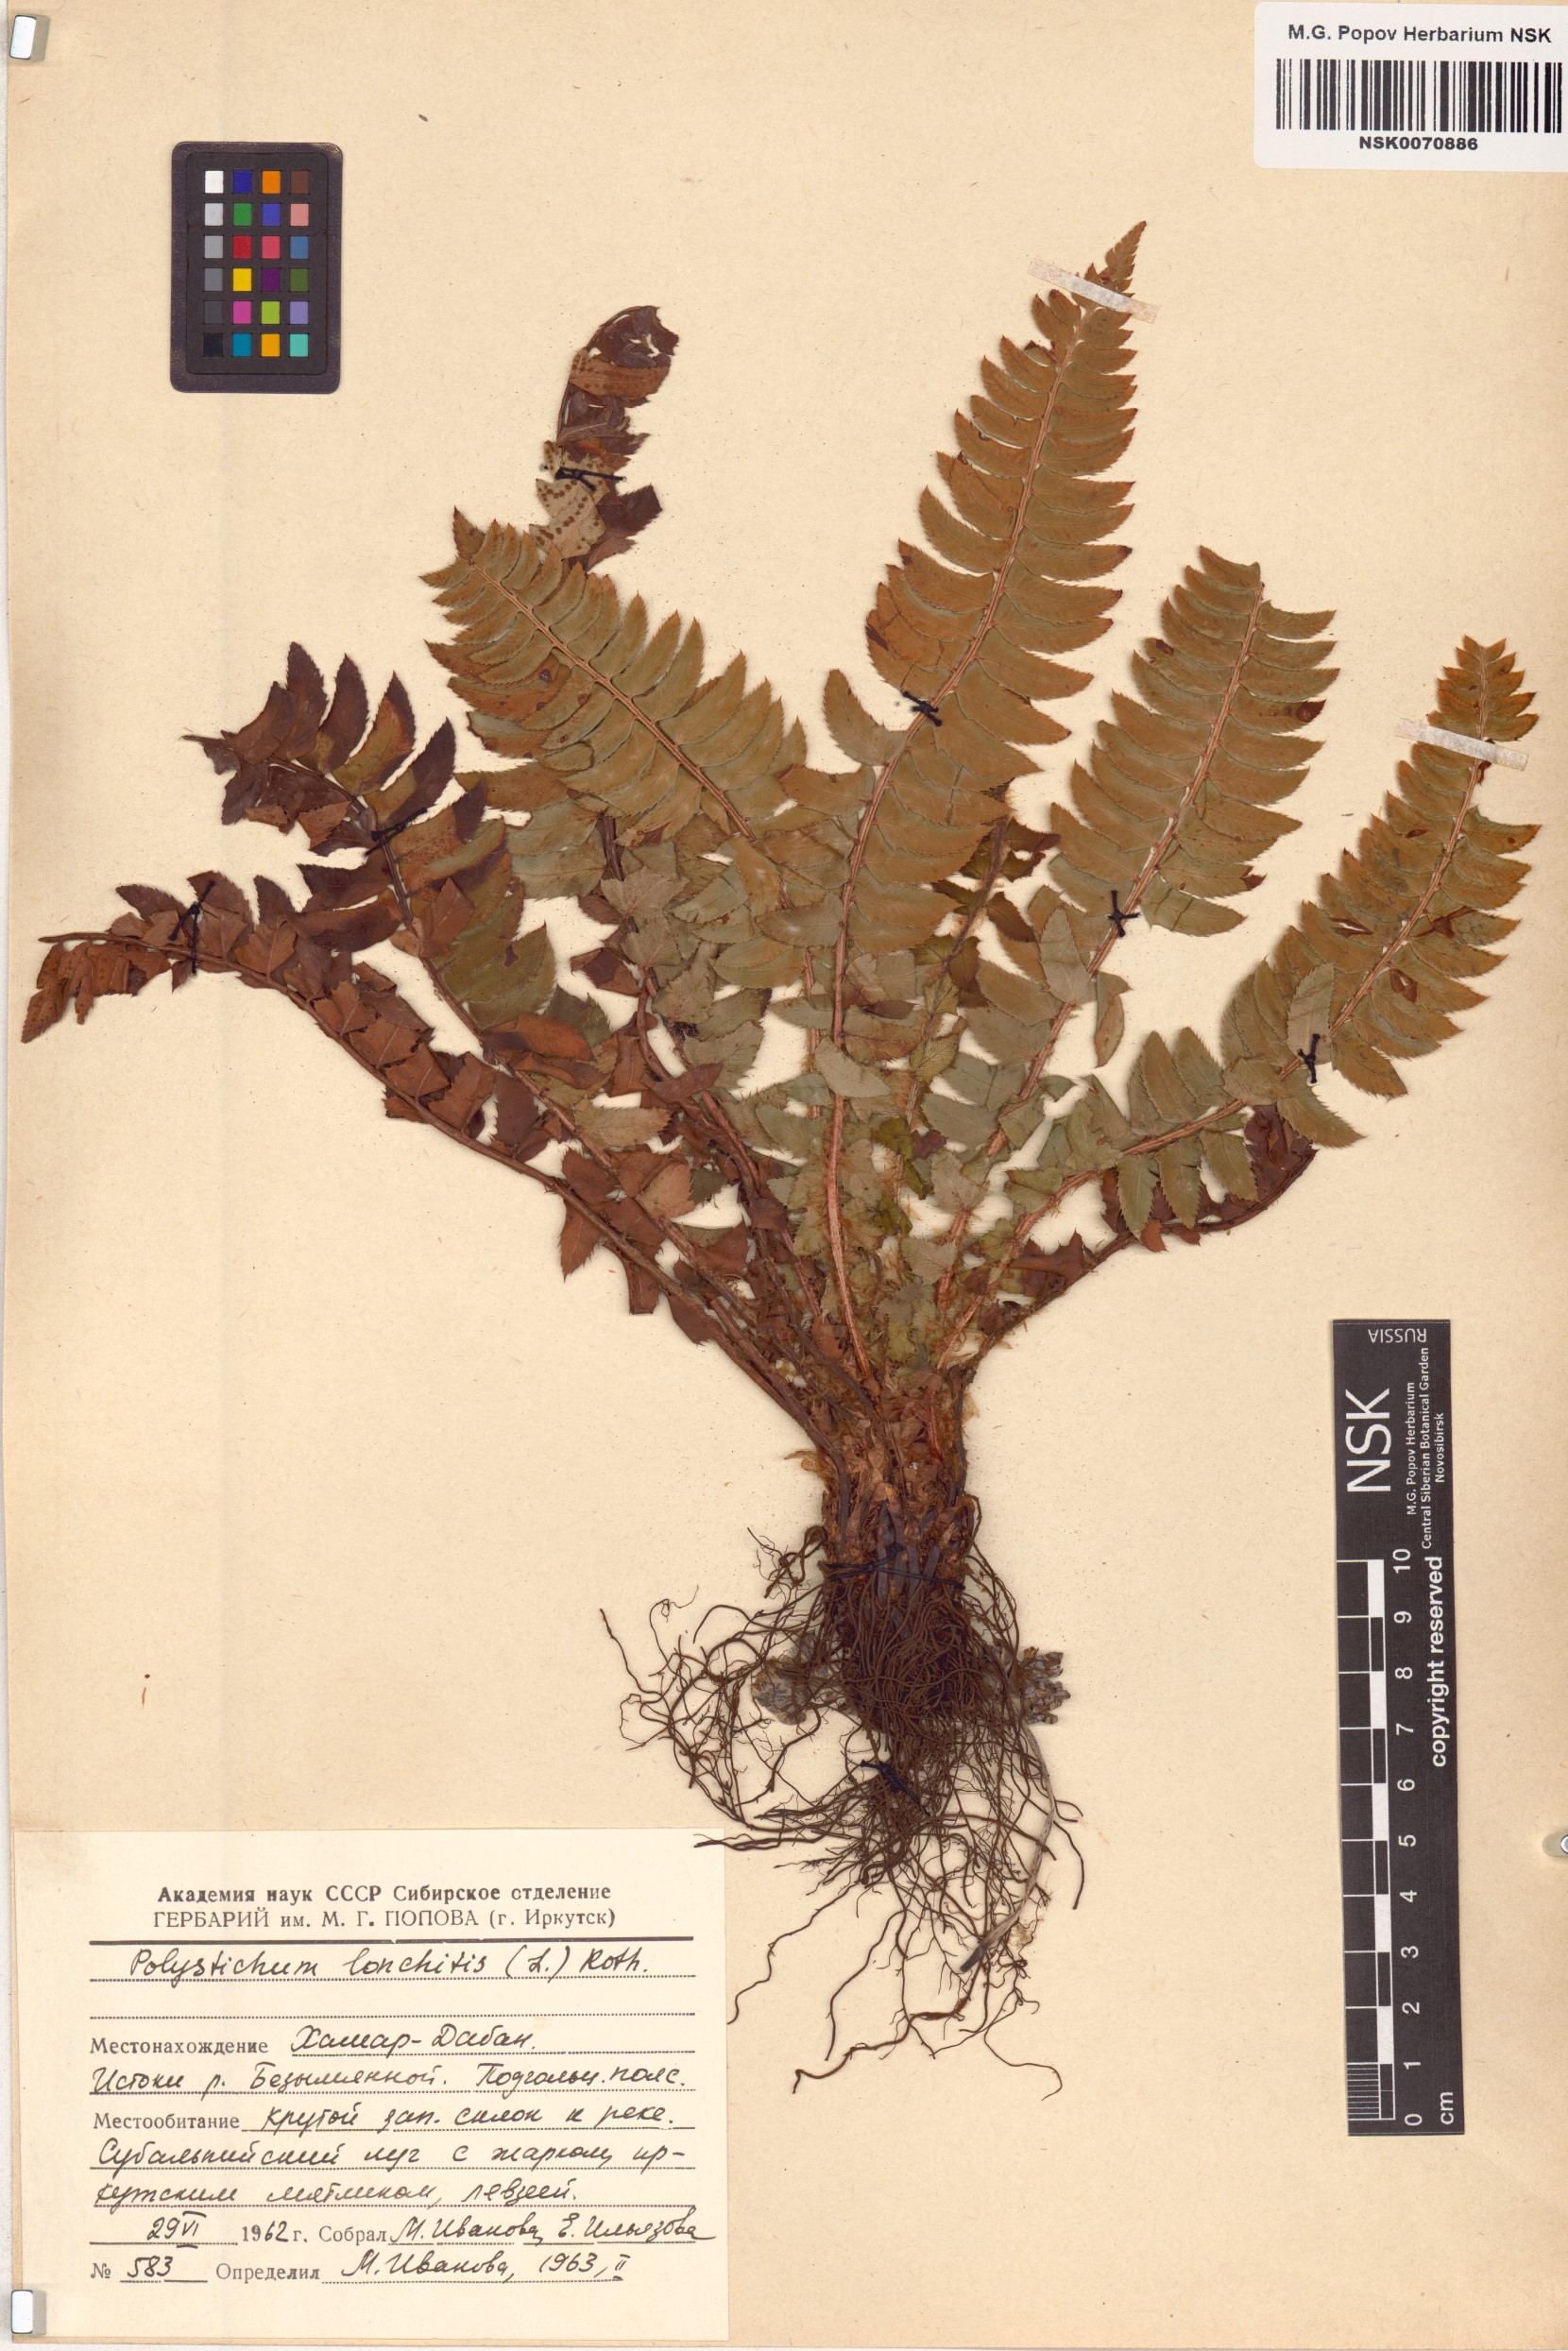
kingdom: Plantae
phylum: Tracheophyta
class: Polypodiopsida
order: Polypodiales
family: Dryopteridaceae
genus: Polystichum
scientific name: Polystichum lonchitis
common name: Holly fern
